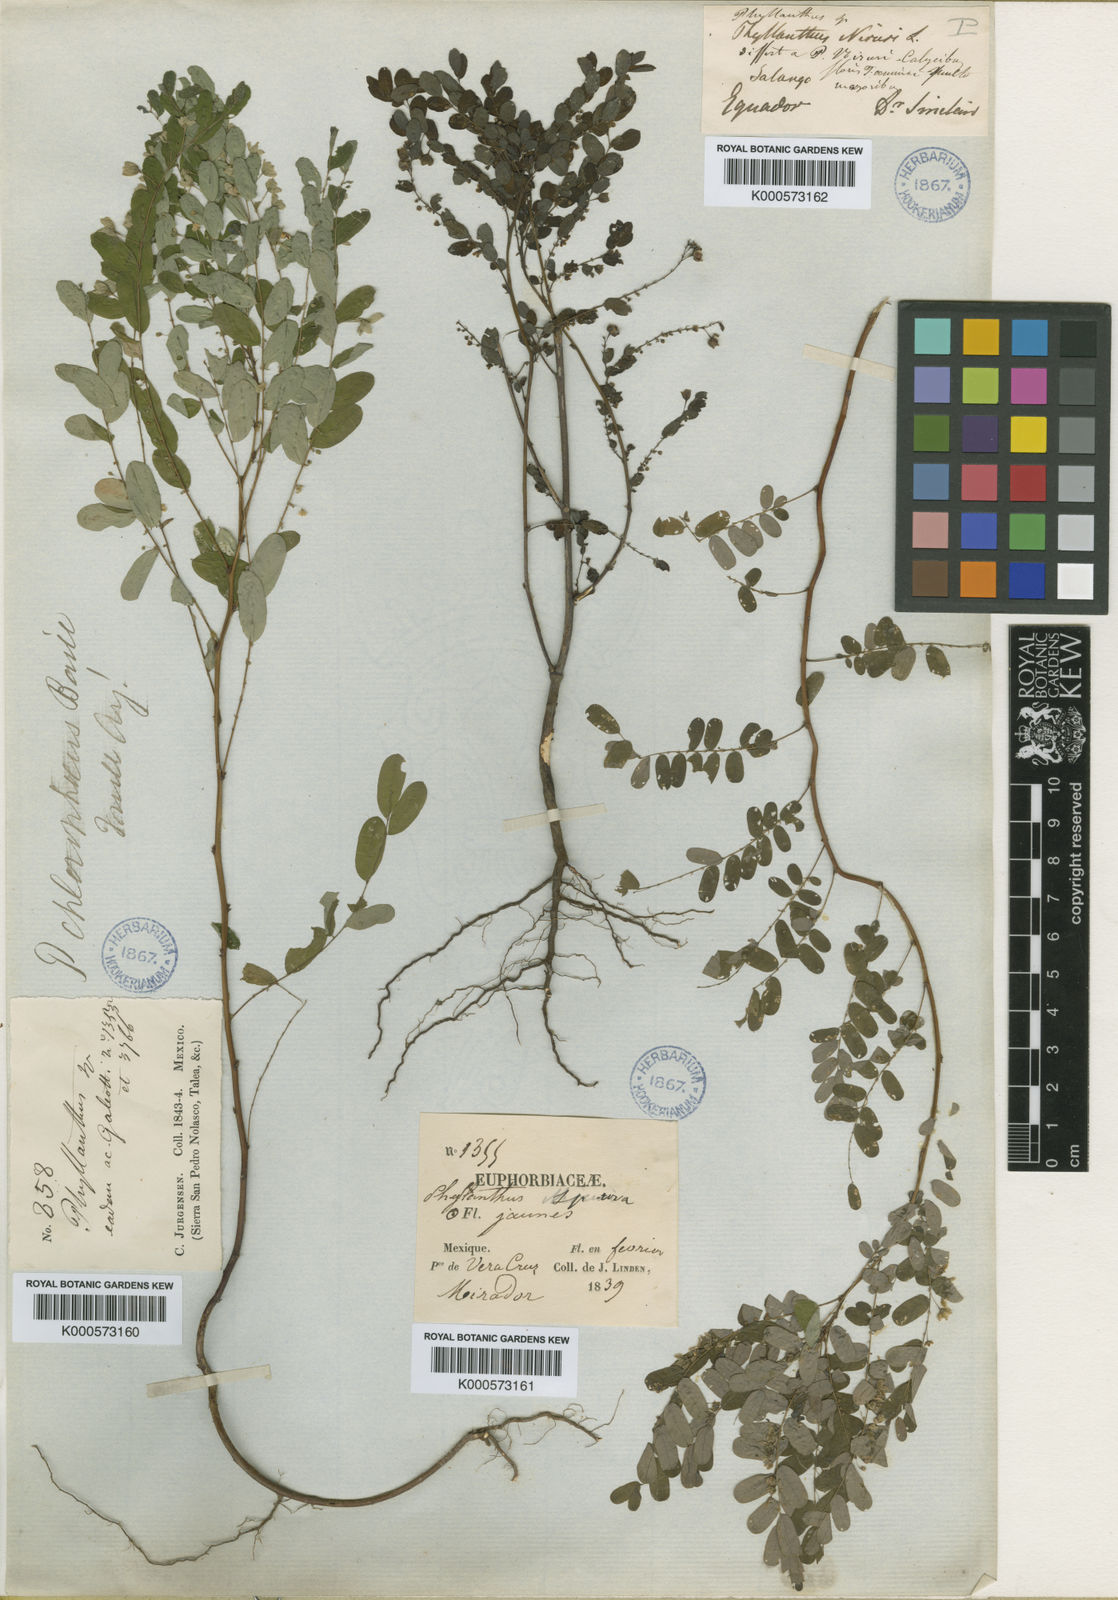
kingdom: Plantae
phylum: Tracheophyta
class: Magnoliopsida
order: Malpighiales
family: Phyllanthaceae
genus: Phyllanthus
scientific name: Phyllanthus niruri
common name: Niruri
